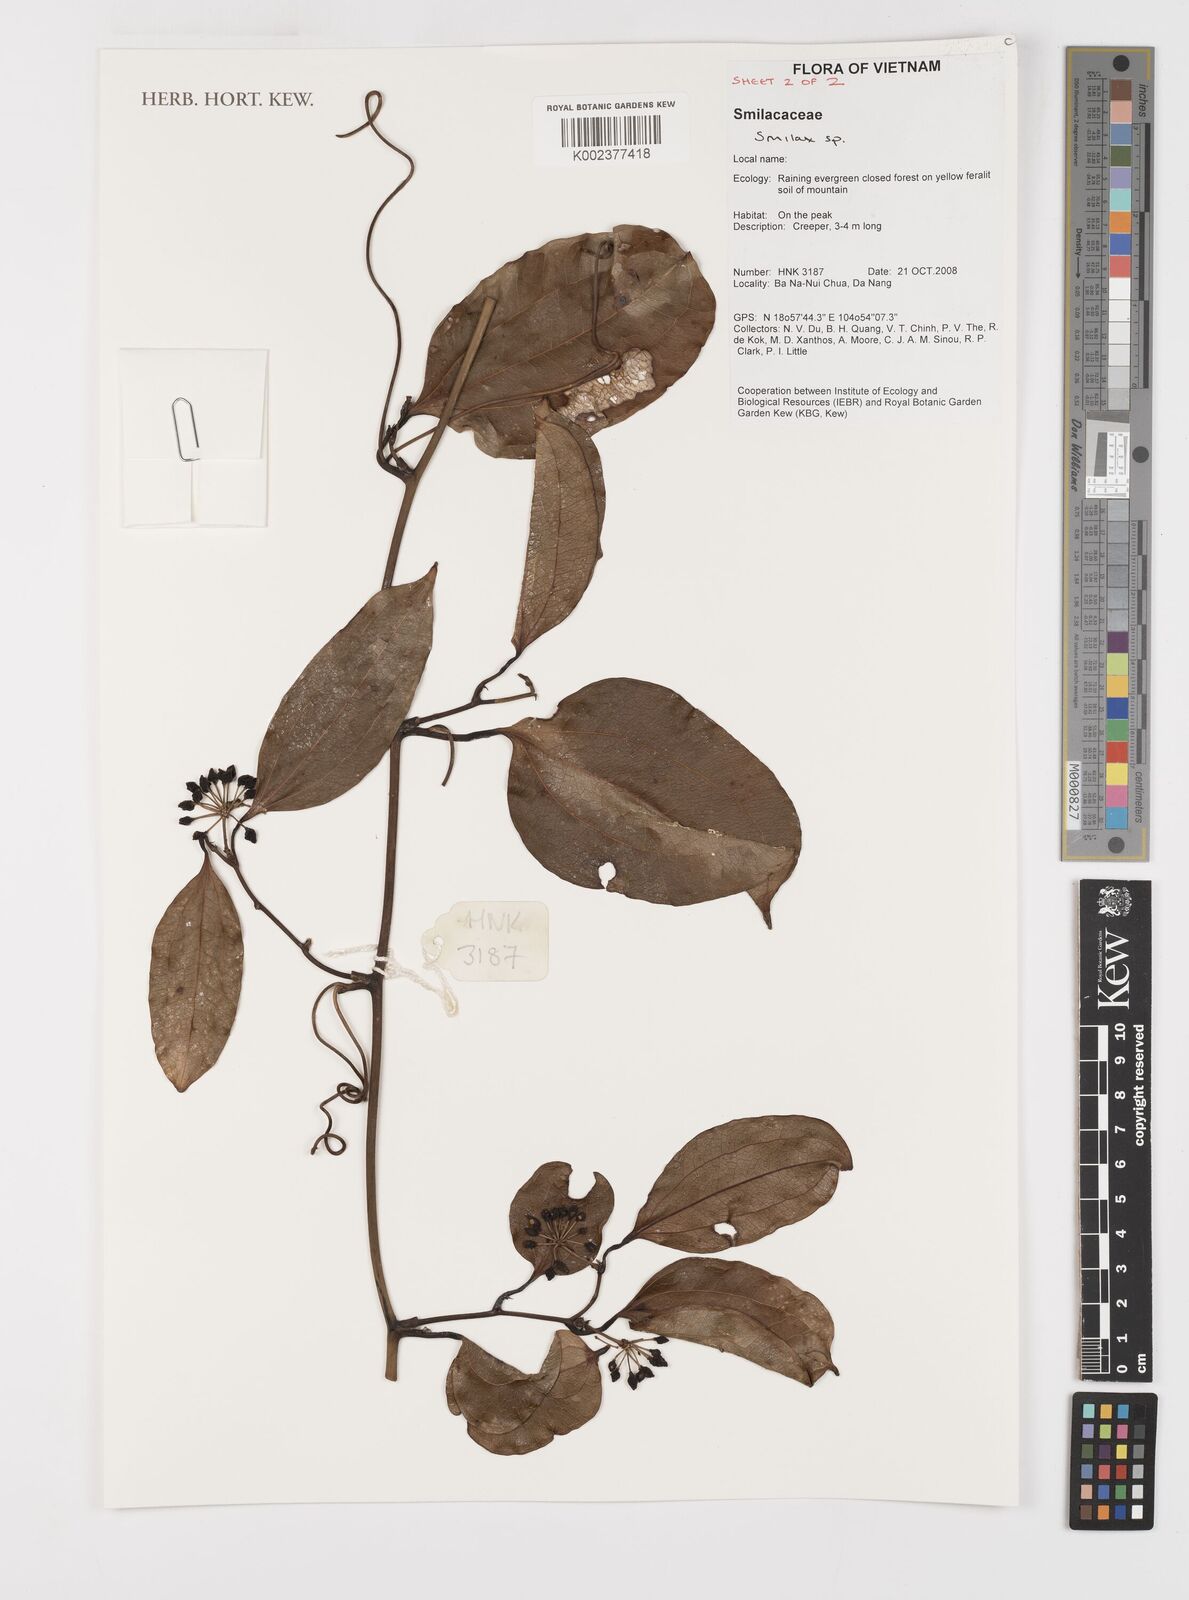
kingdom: Plantae
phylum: Tracheophyta
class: Liliopsida
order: Liliales
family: Smilacaceae
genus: Smilax
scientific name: Smilax
